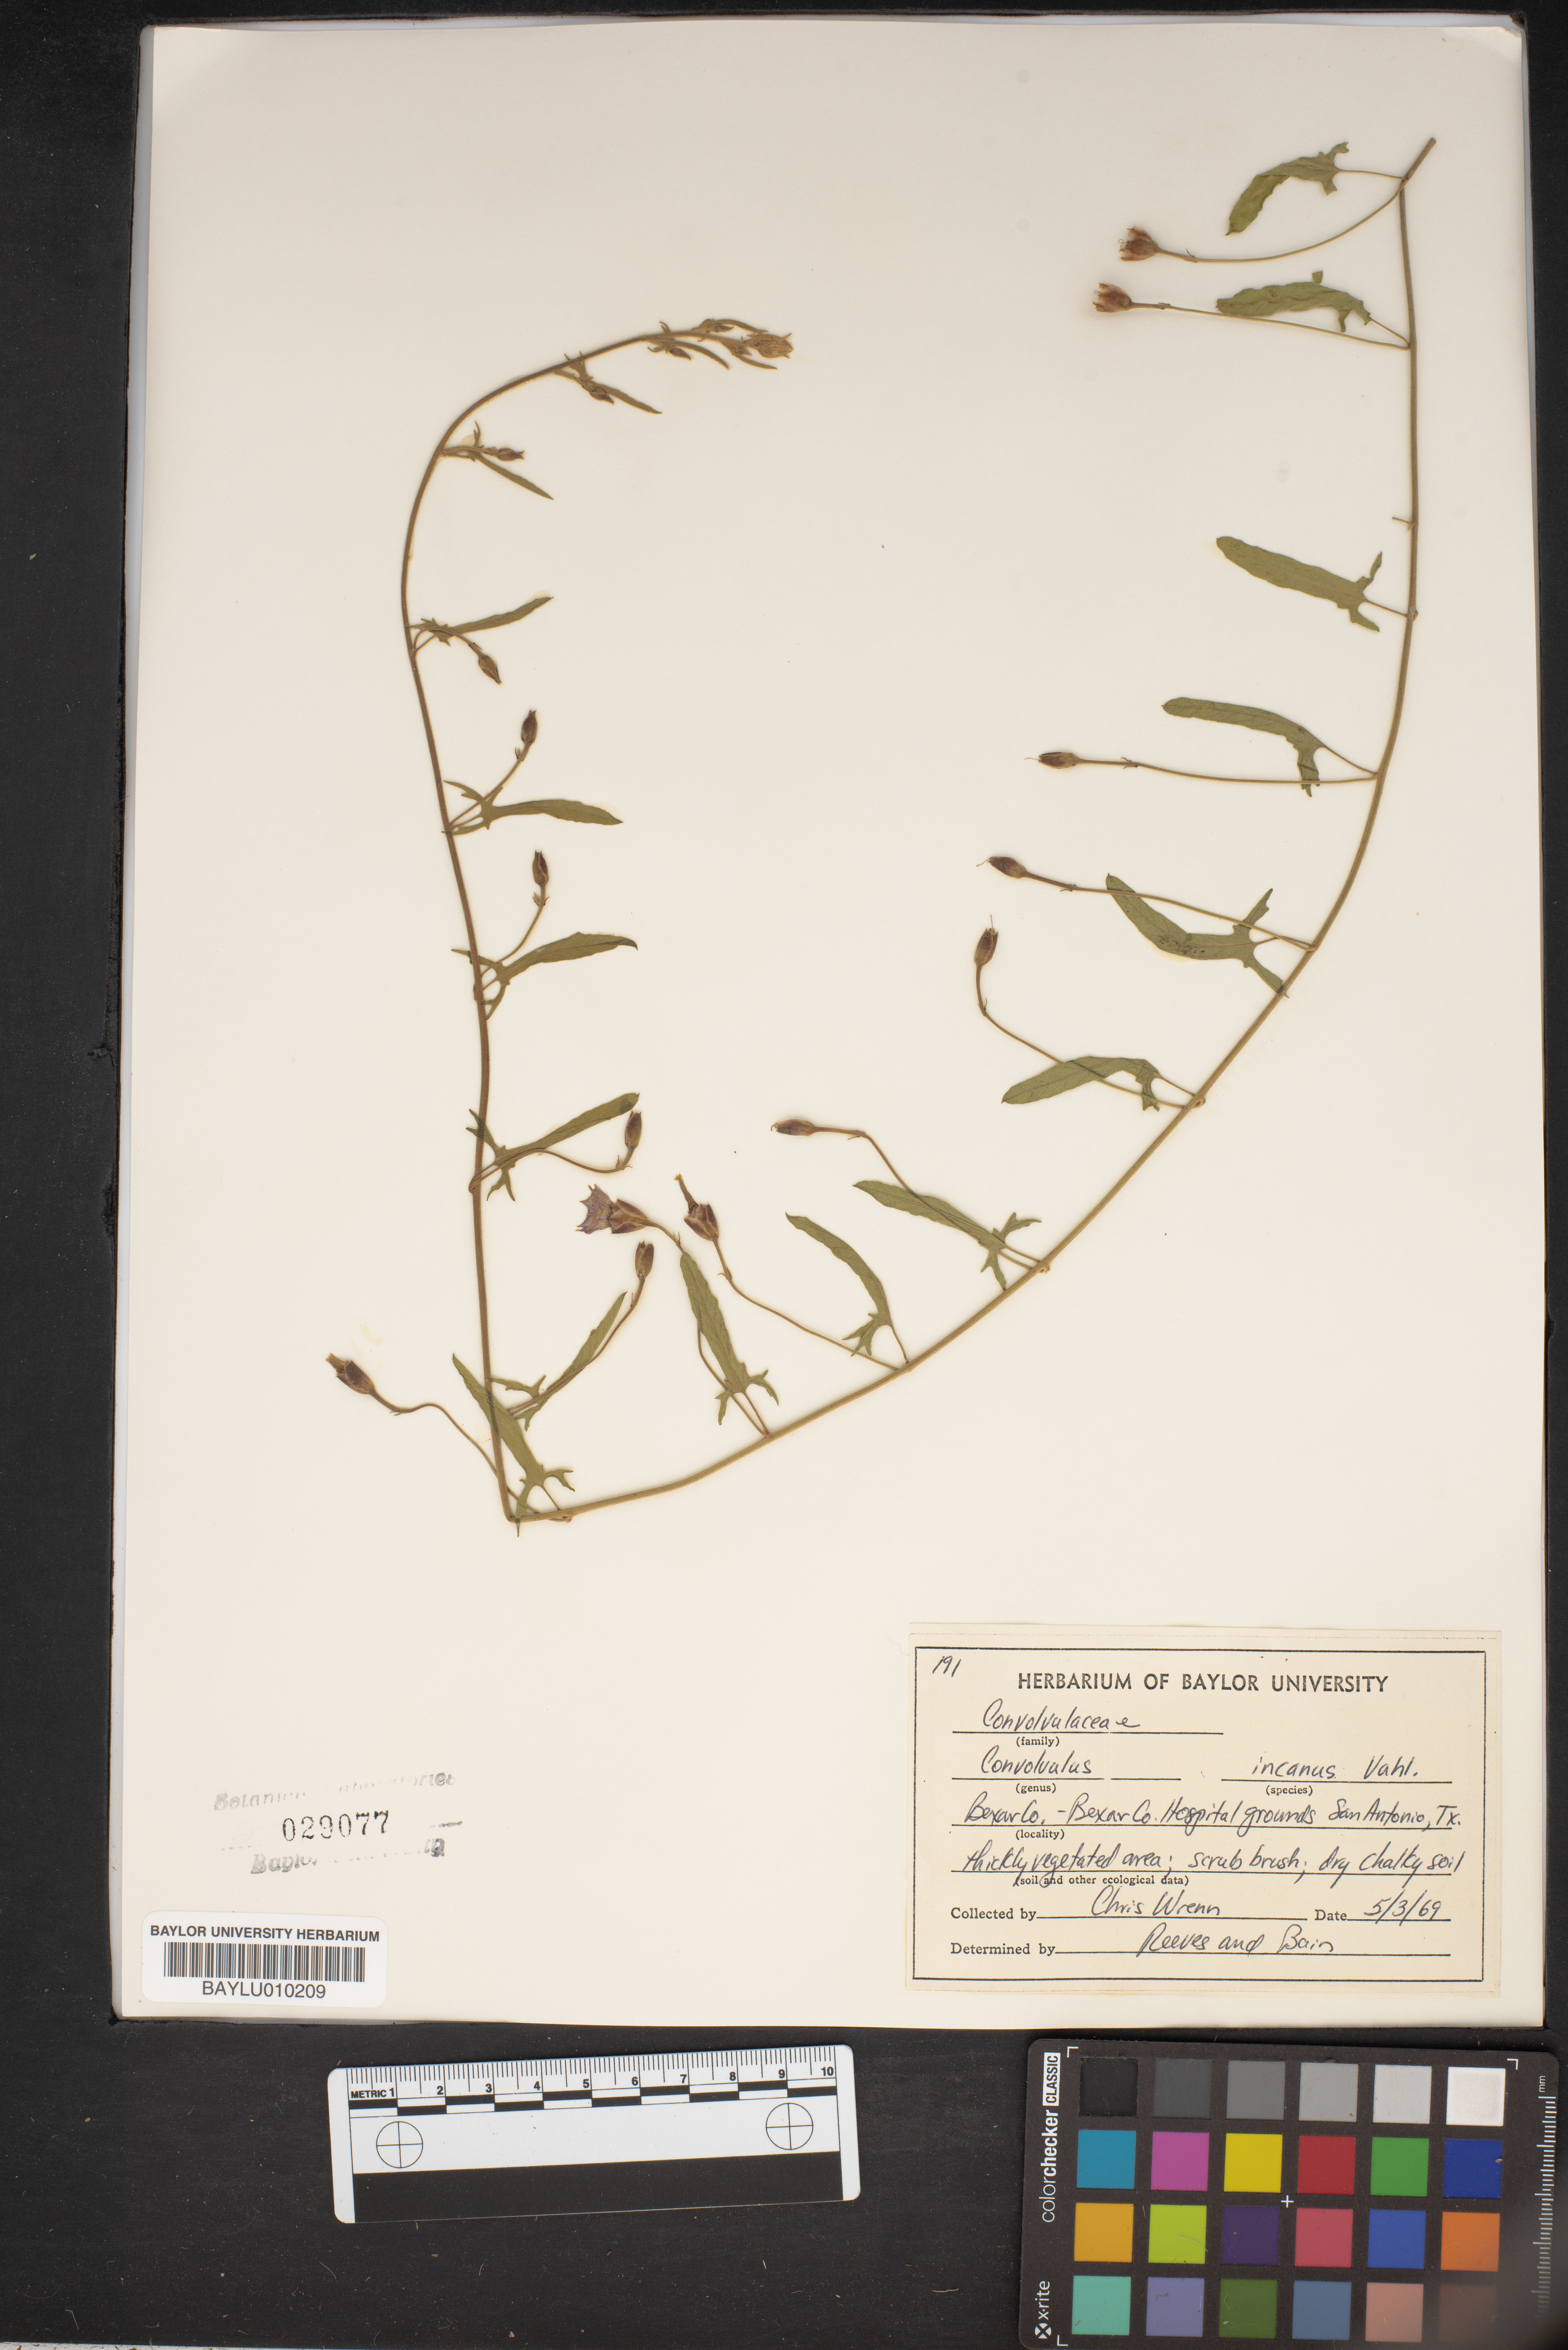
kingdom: Plantae
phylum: Tracheophyta
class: Magnoliopsida
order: Solanales
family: Convolvulaceae
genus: Convolvulus
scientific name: Convolvulus hermanniae
